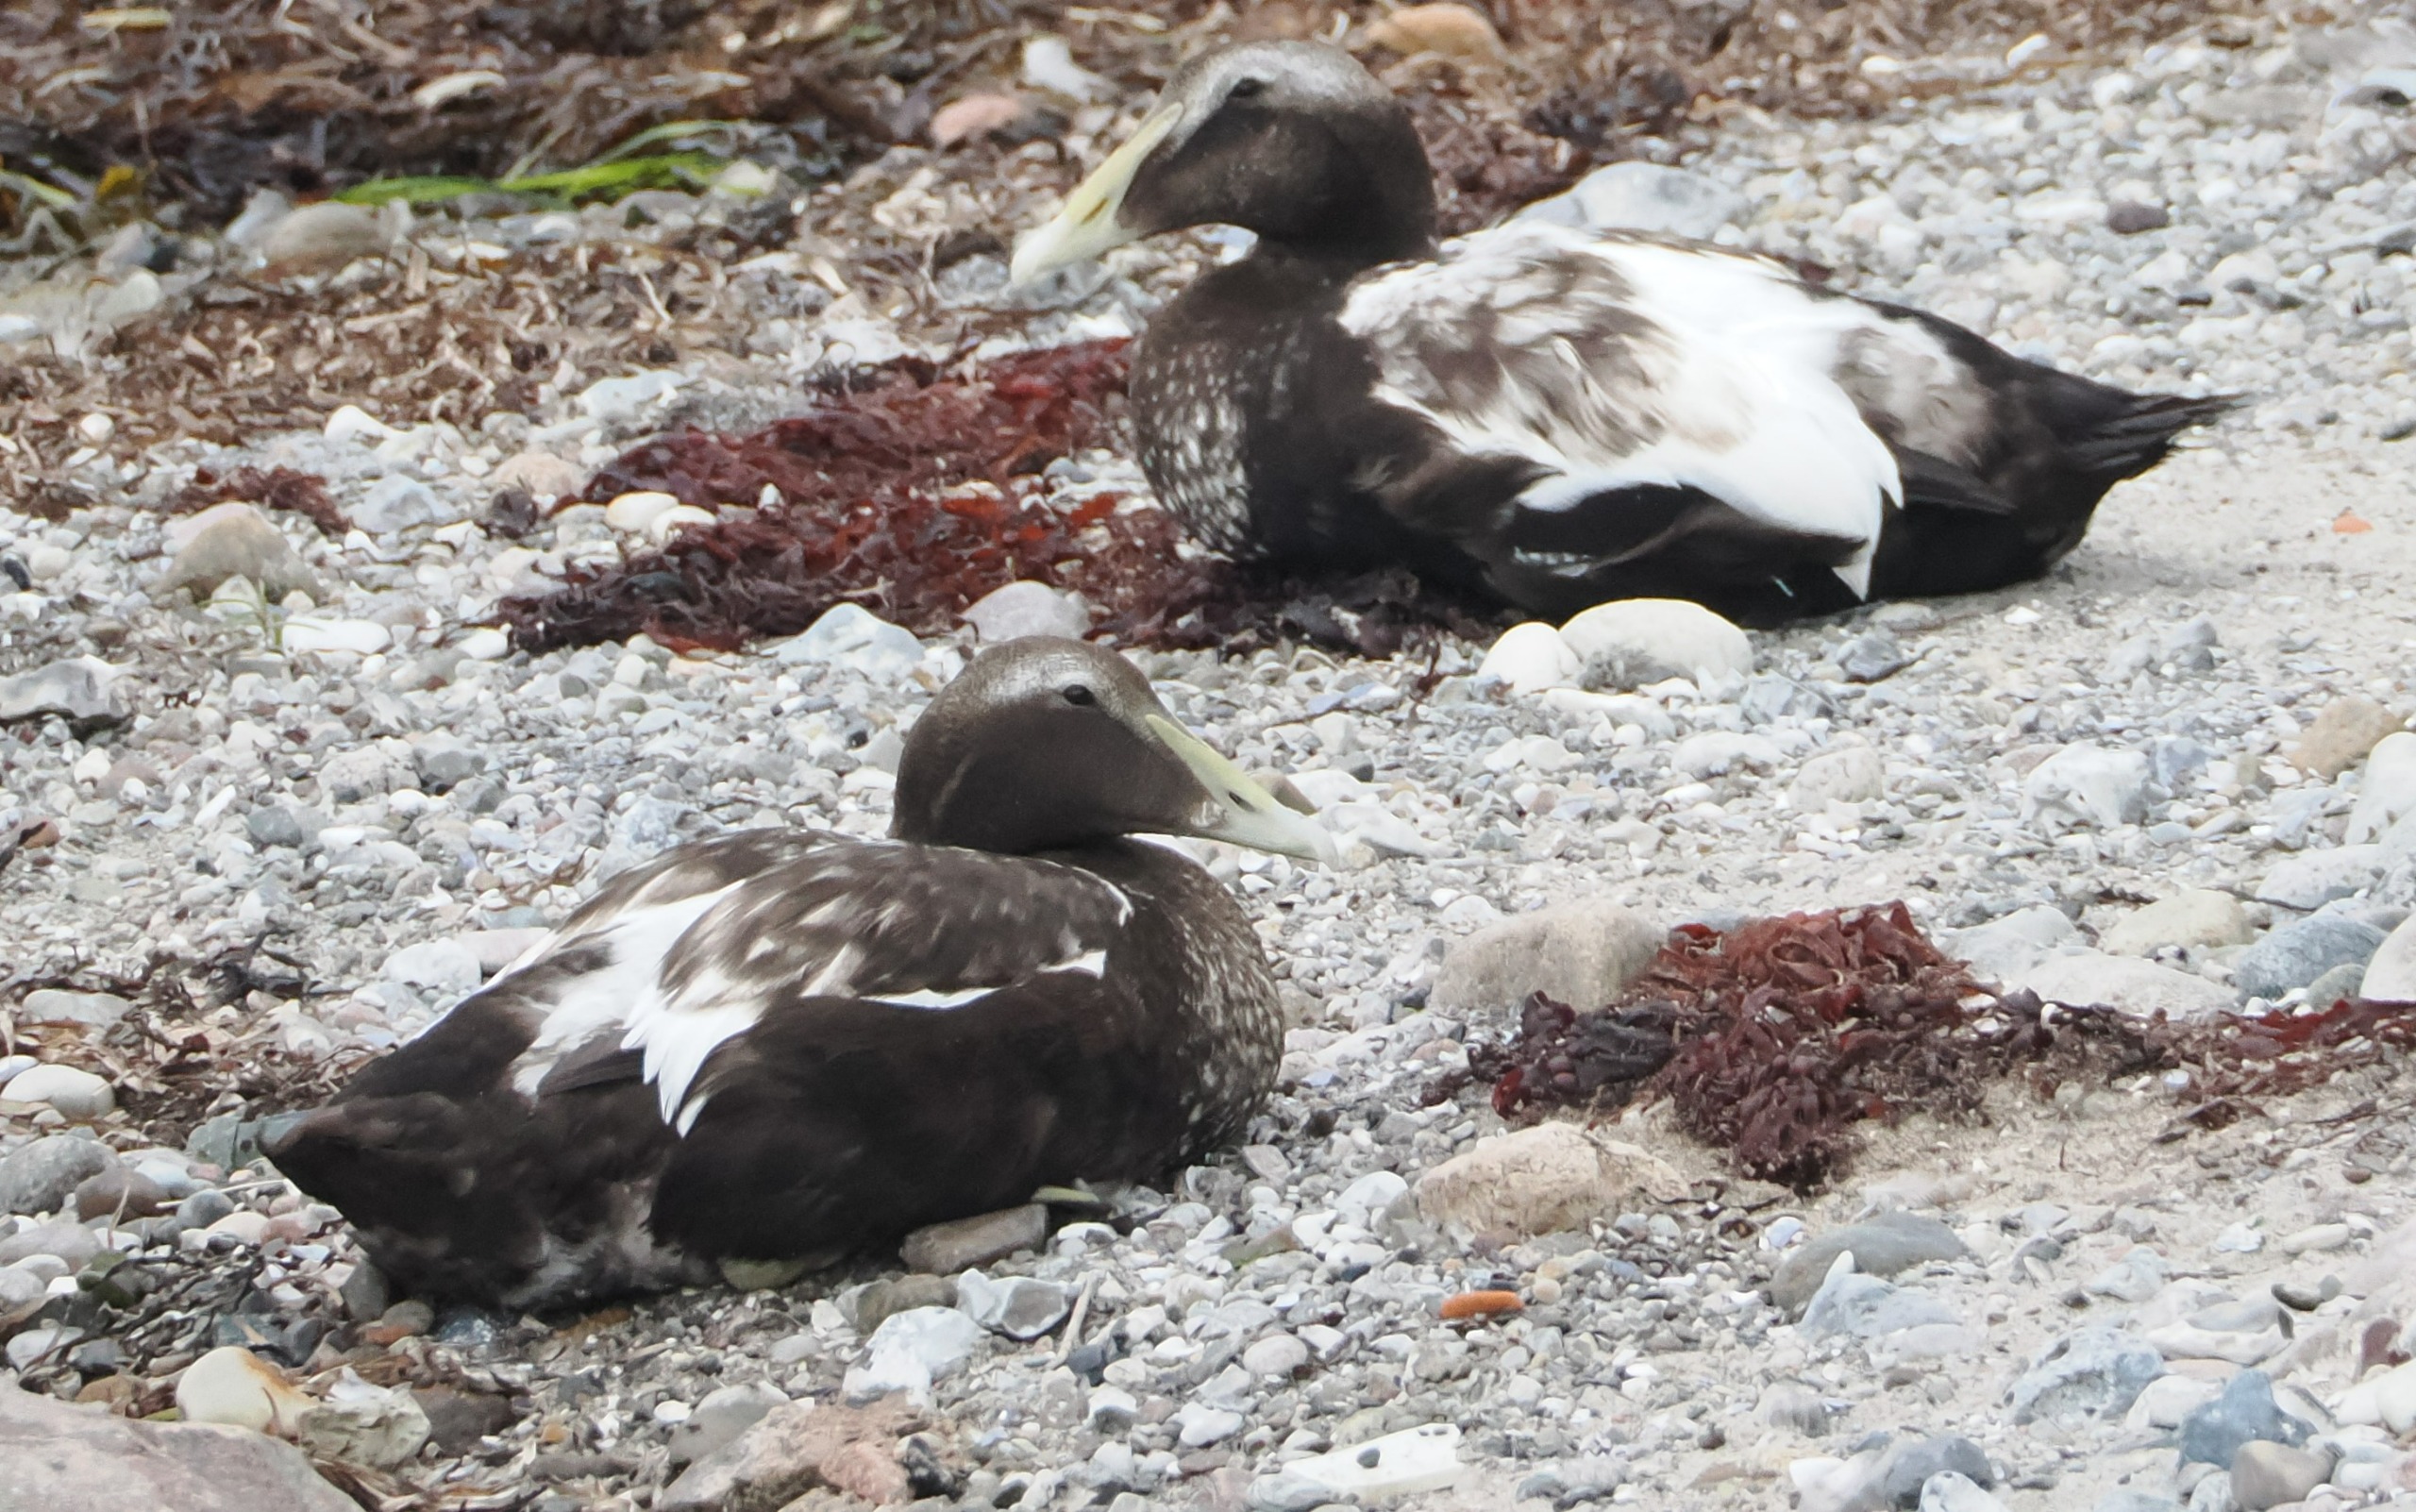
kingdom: Animalia
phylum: Chordata
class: Aves
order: Anseriformes
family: Anatidae
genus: Somateria
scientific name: Somateria mollissima
